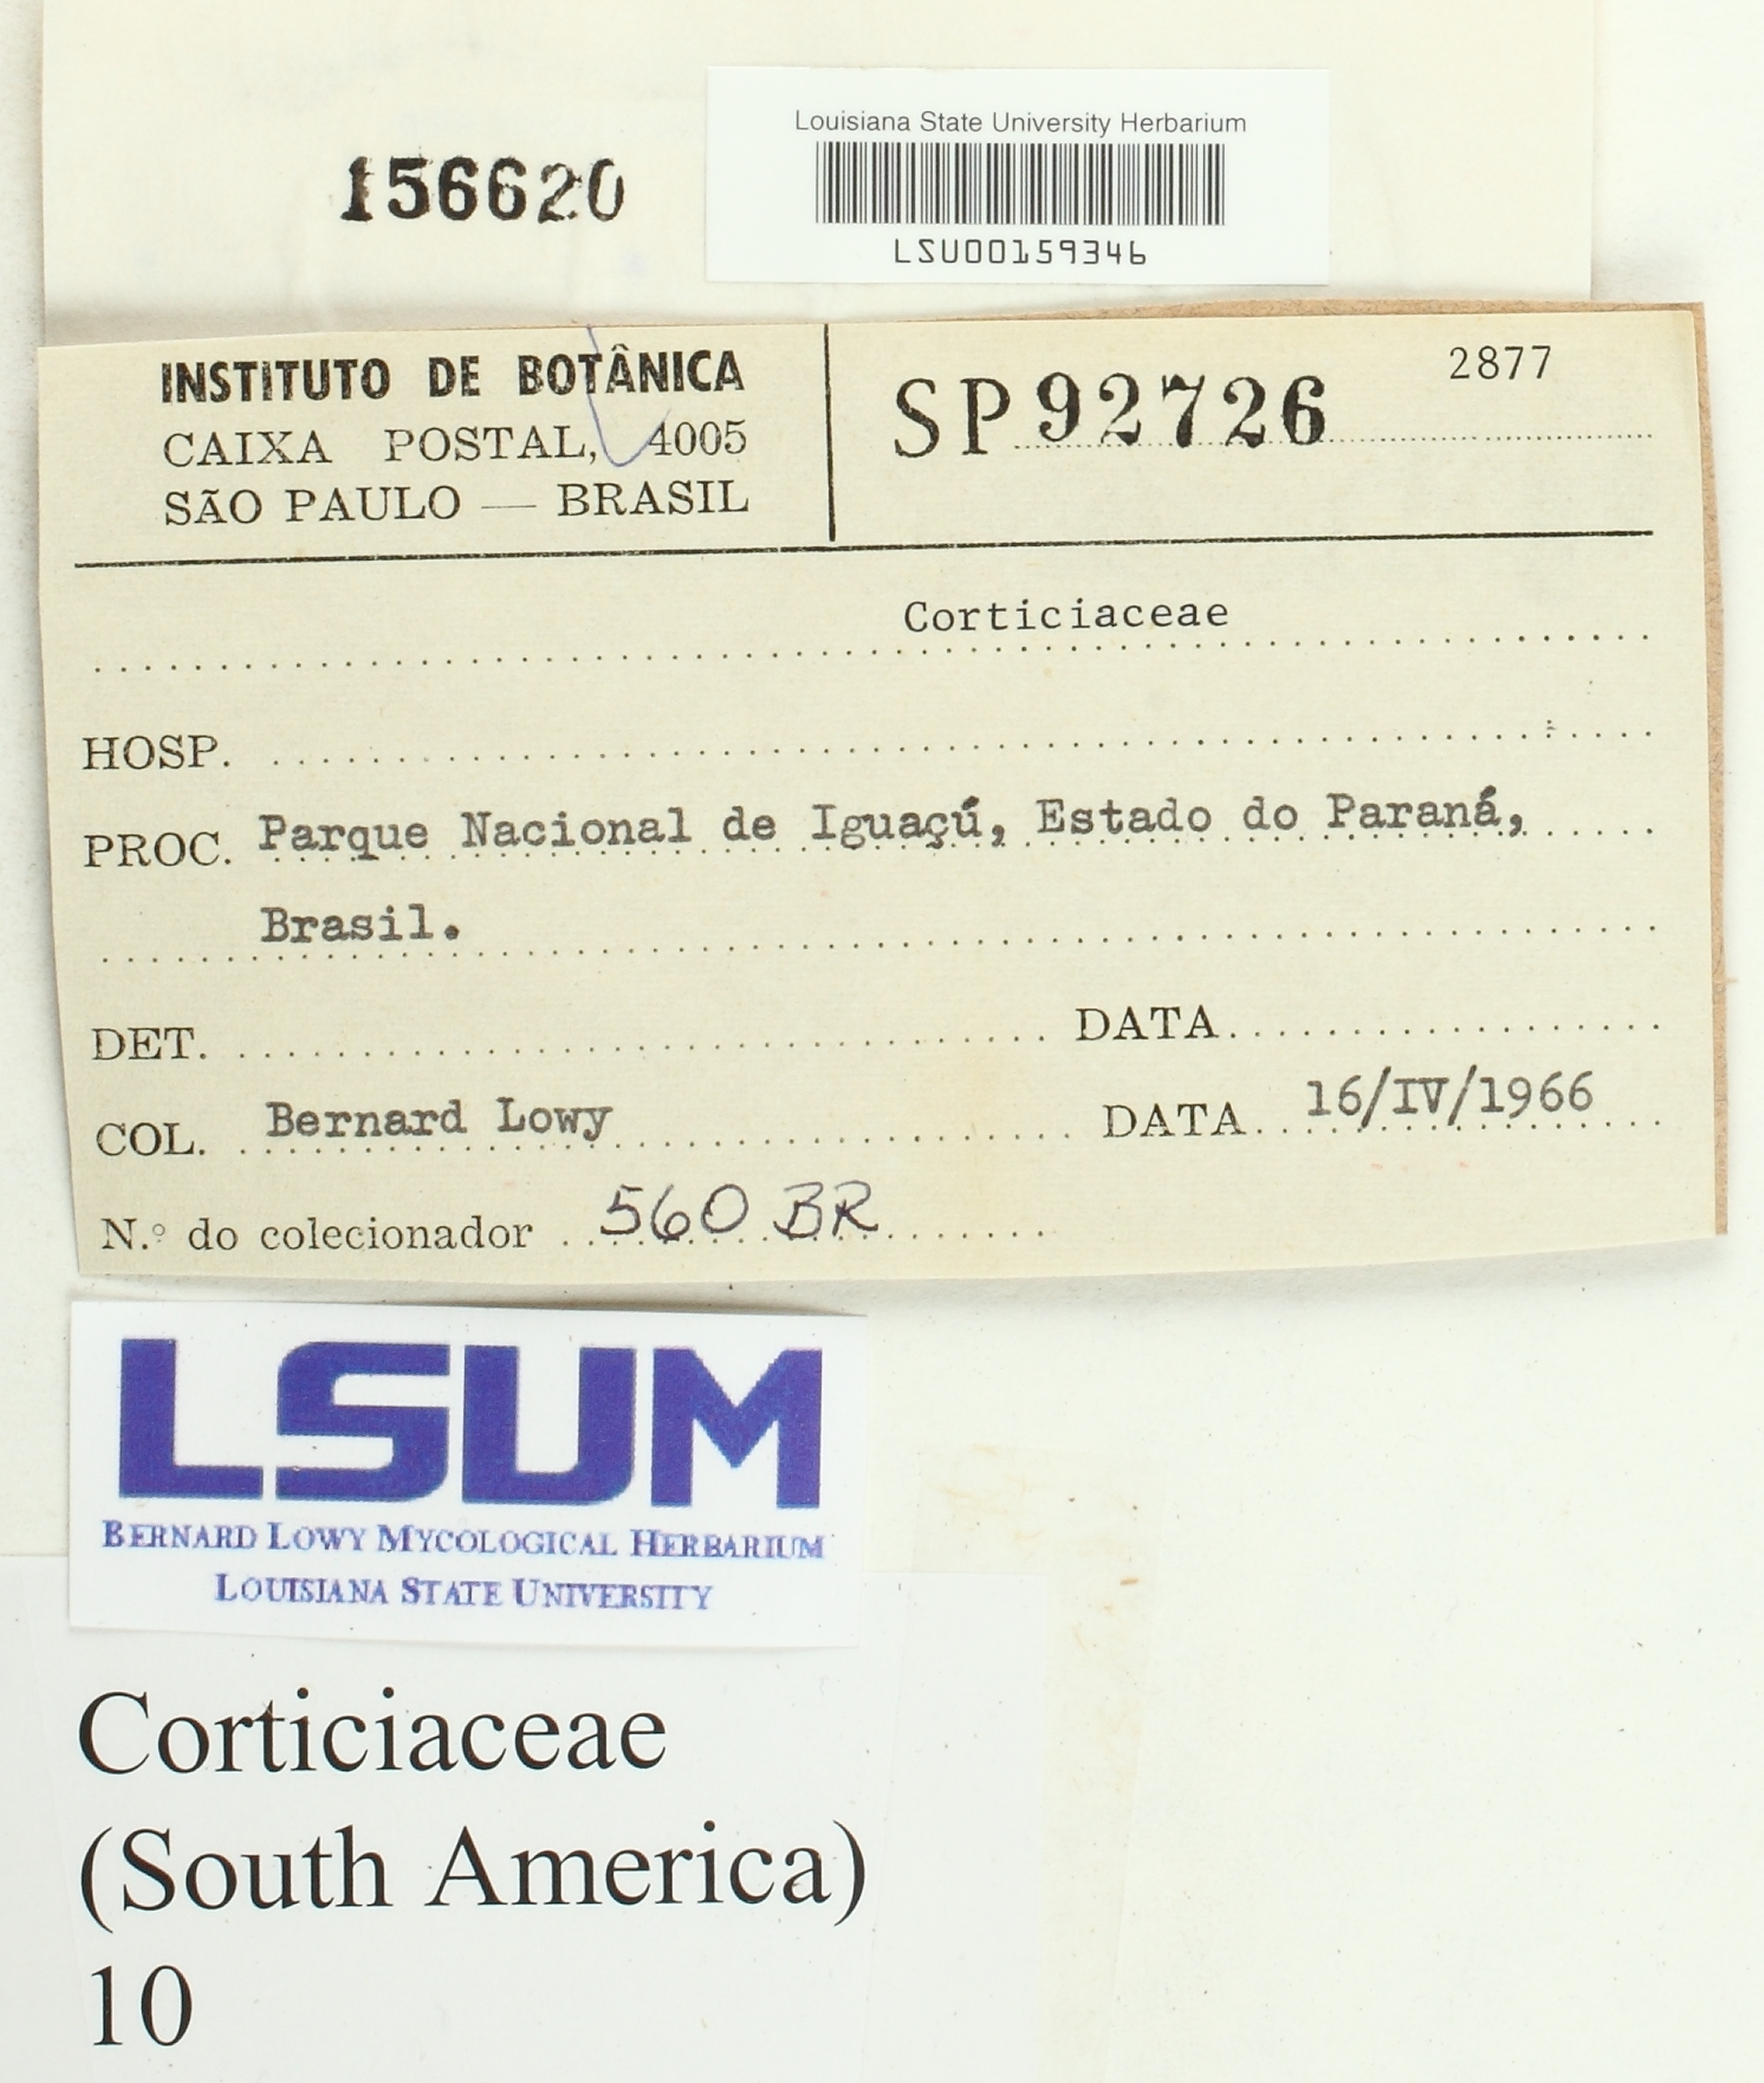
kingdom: Fungi
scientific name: Fungi
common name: Fungi
